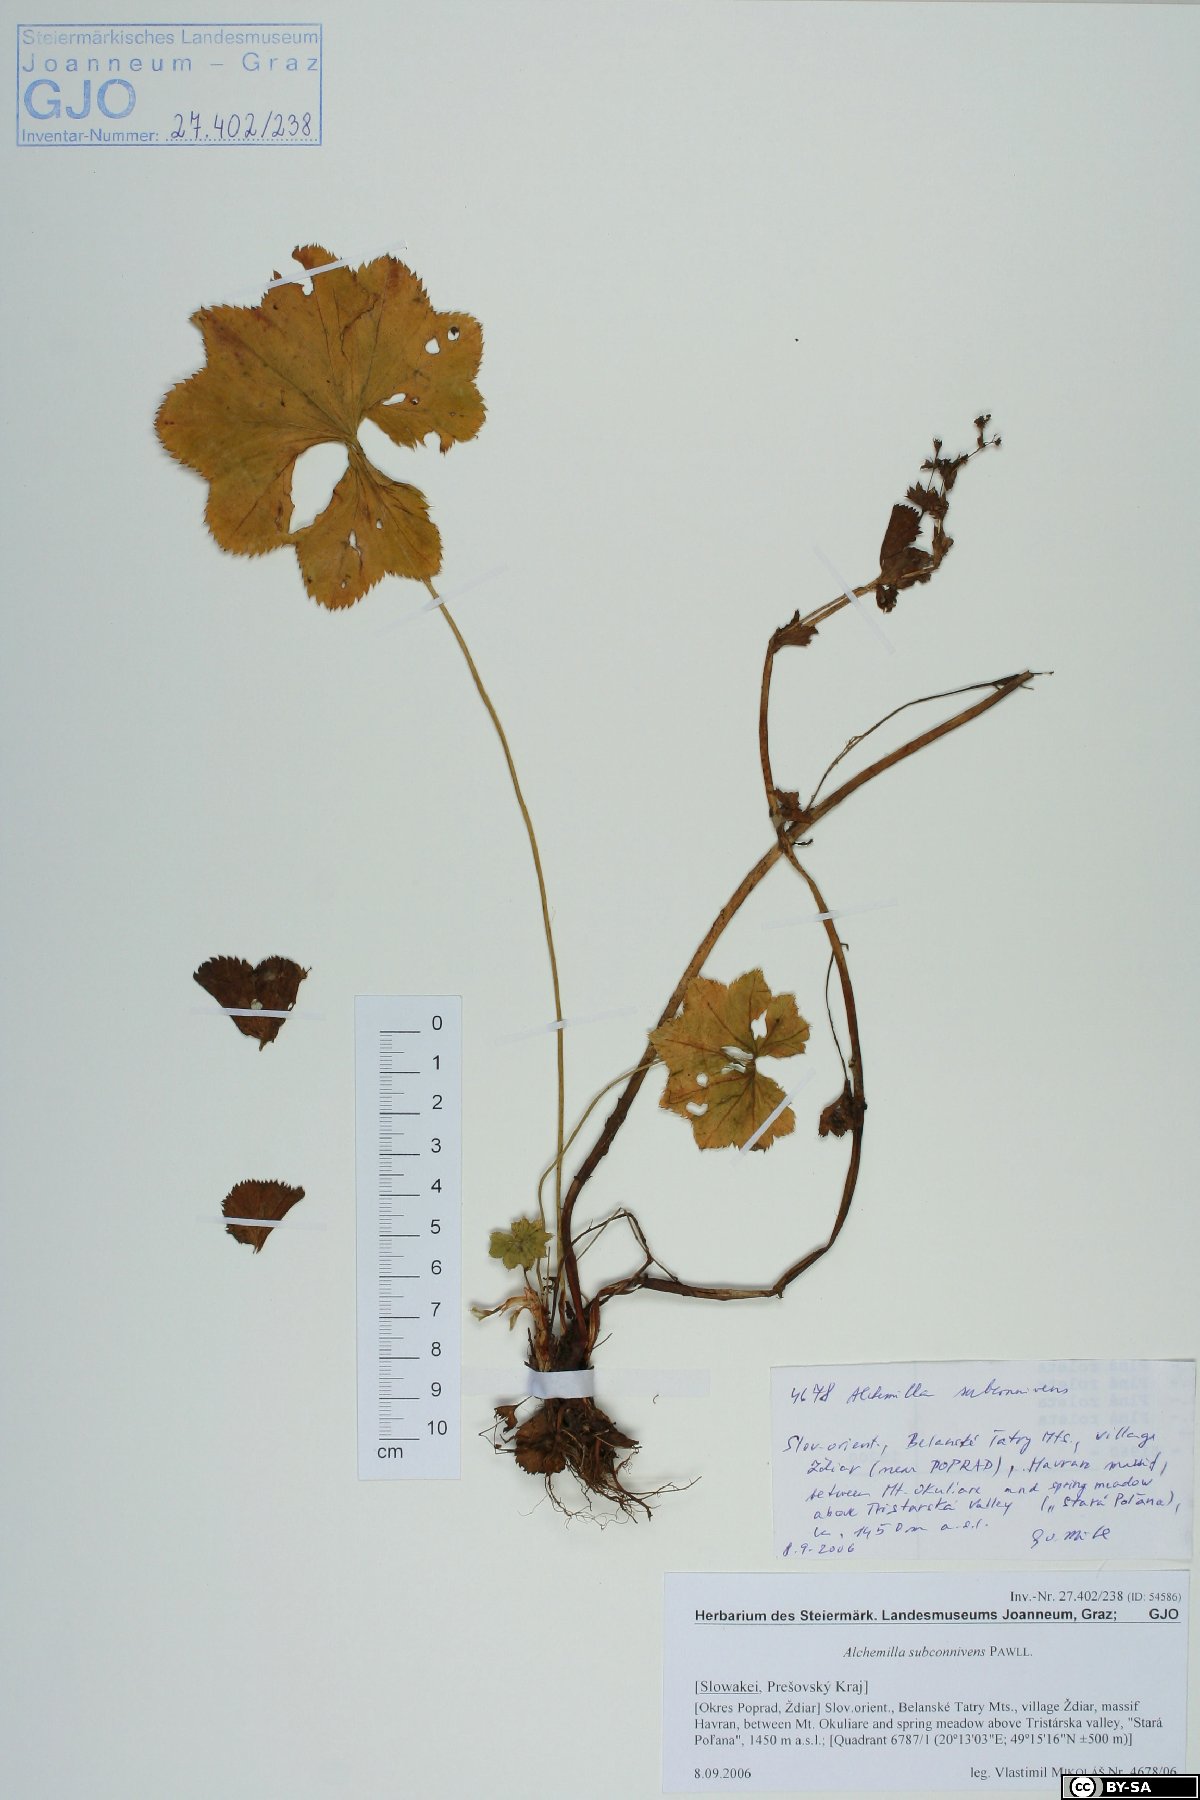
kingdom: Plantae
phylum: Tracheophyta
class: Magnoliopsida
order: Rosales
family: Rosaceae
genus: Alchemilla
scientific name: Alchemilla connivens
